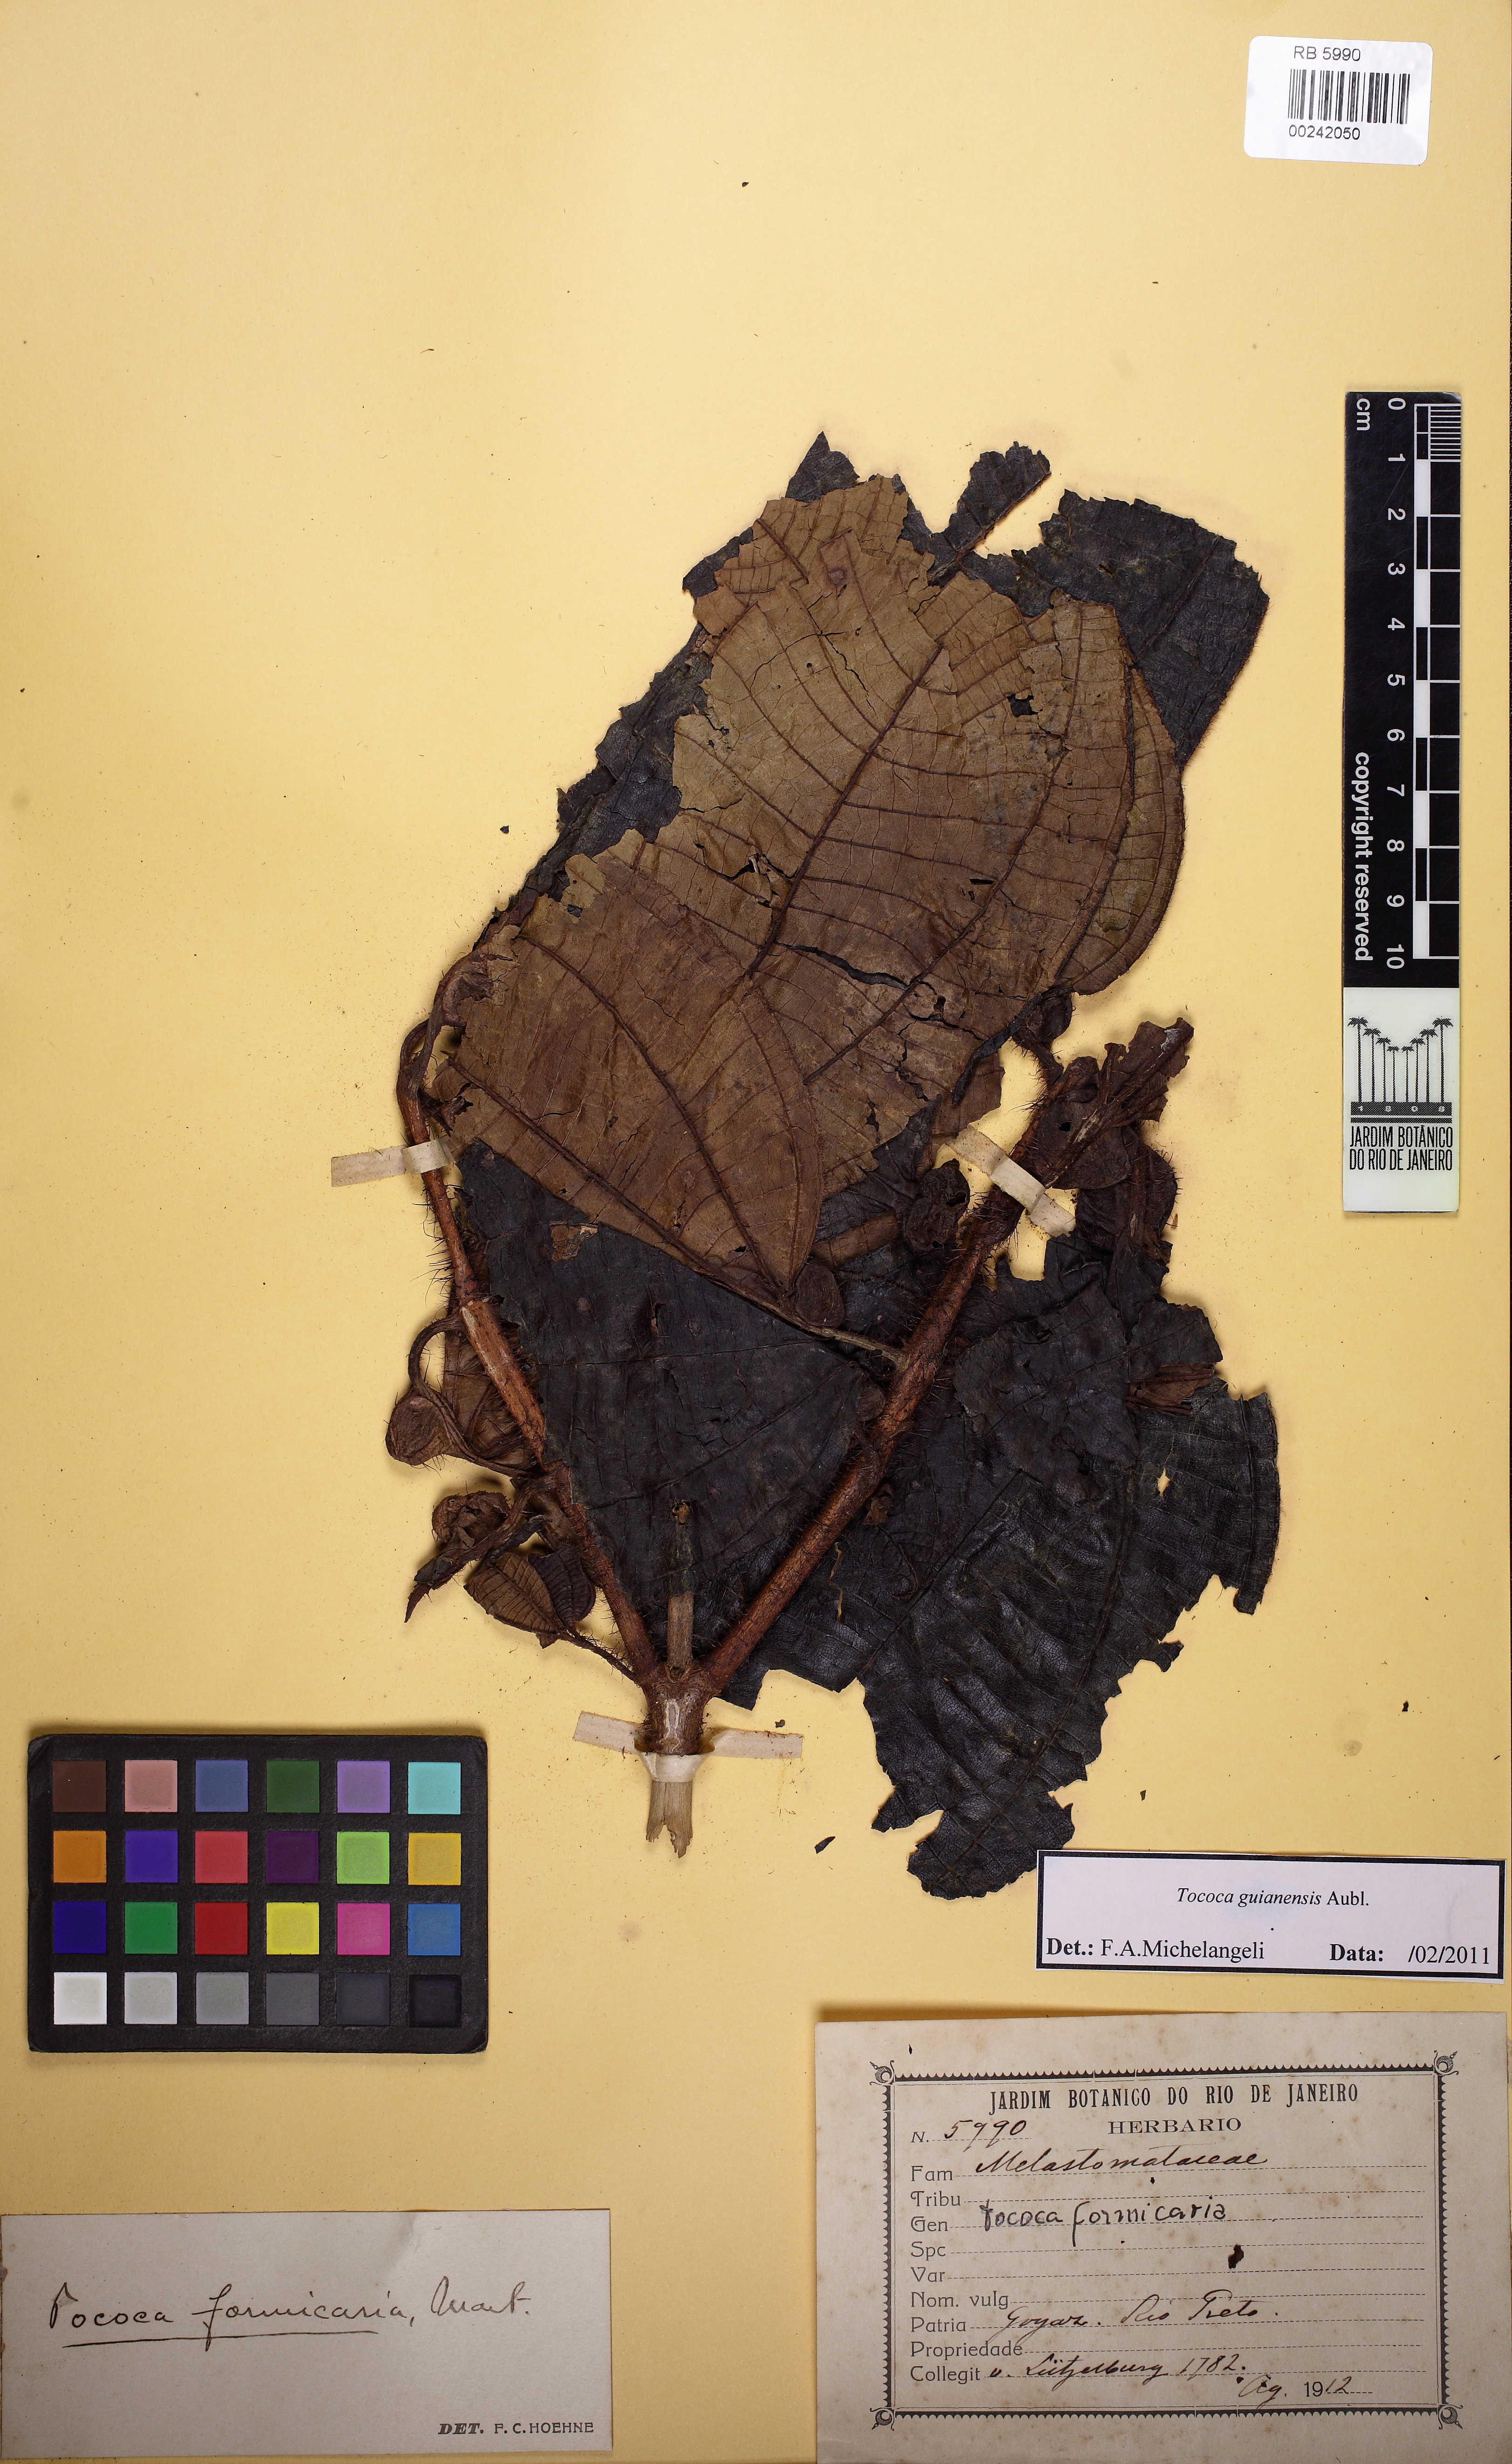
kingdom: Plantae
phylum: Tracheophyta
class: Magnoliopsida
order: Myrtales
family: Melastomataceae
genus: Miconia
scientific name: Miconia tococa
